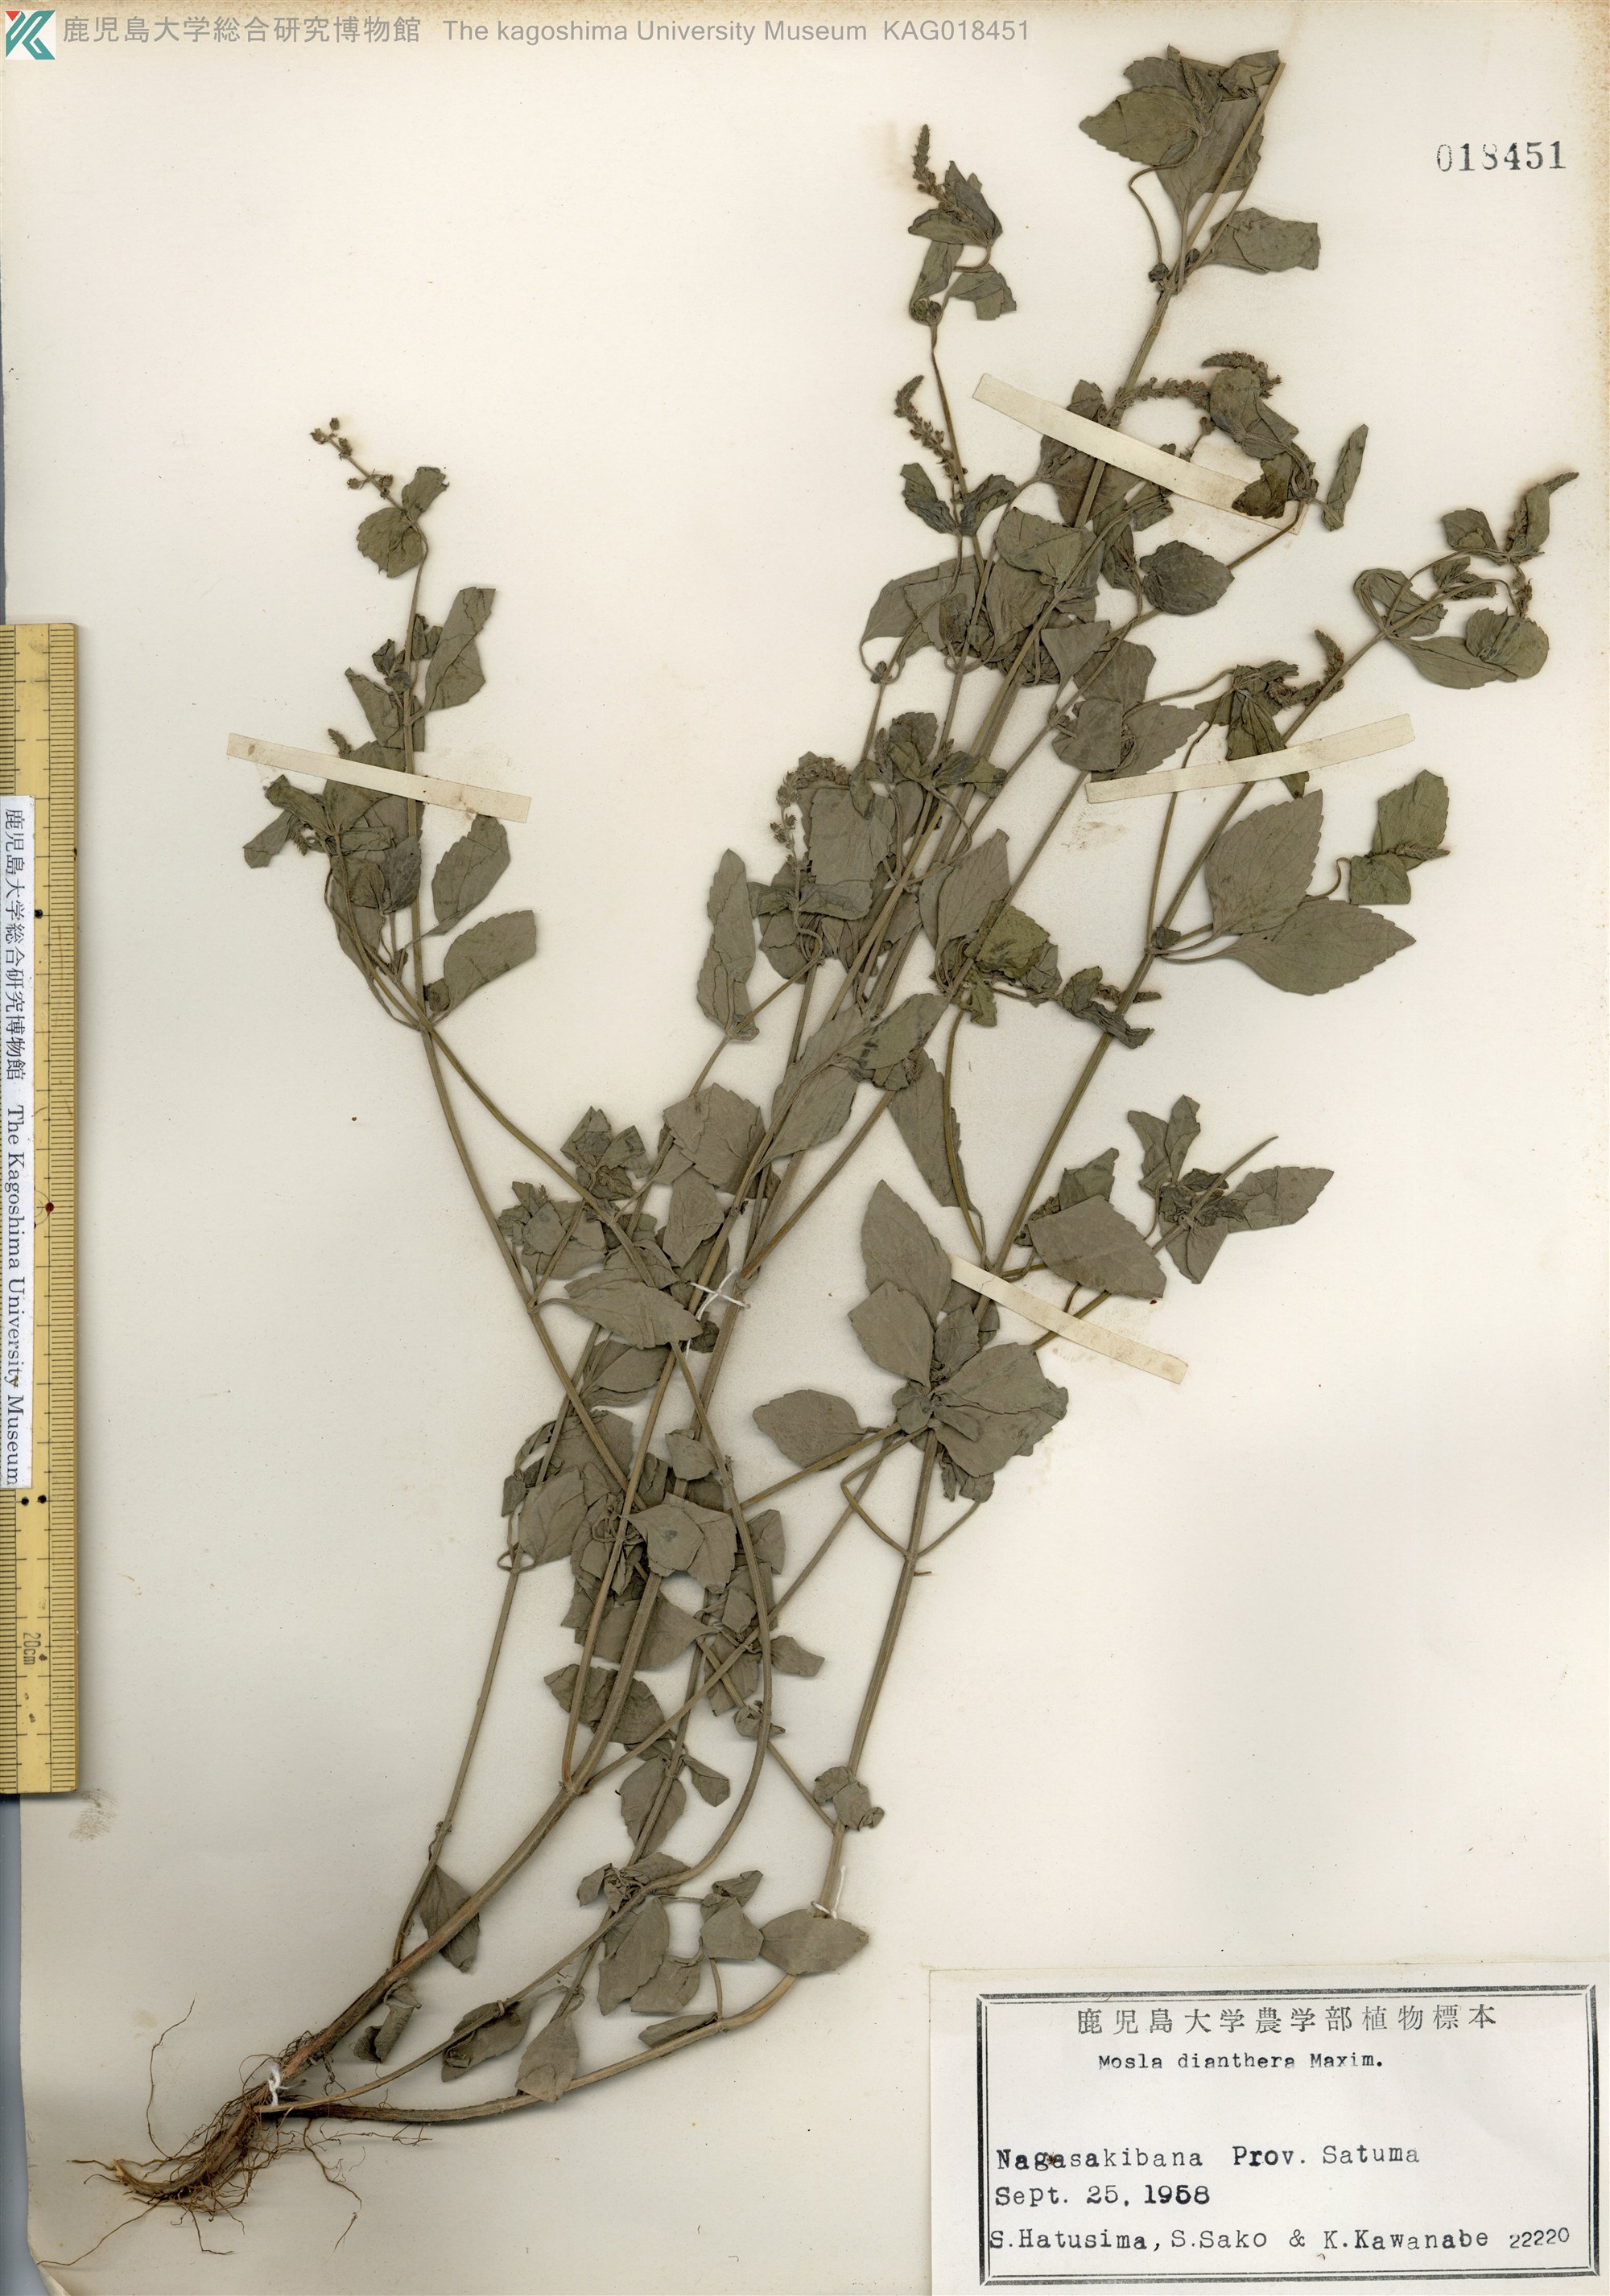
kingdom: Plantae
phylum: Tracheophyta
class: Magnoliopsida
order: Lamiales
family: Lamiaceae
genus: Mosla
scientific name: Mosla dianthera
